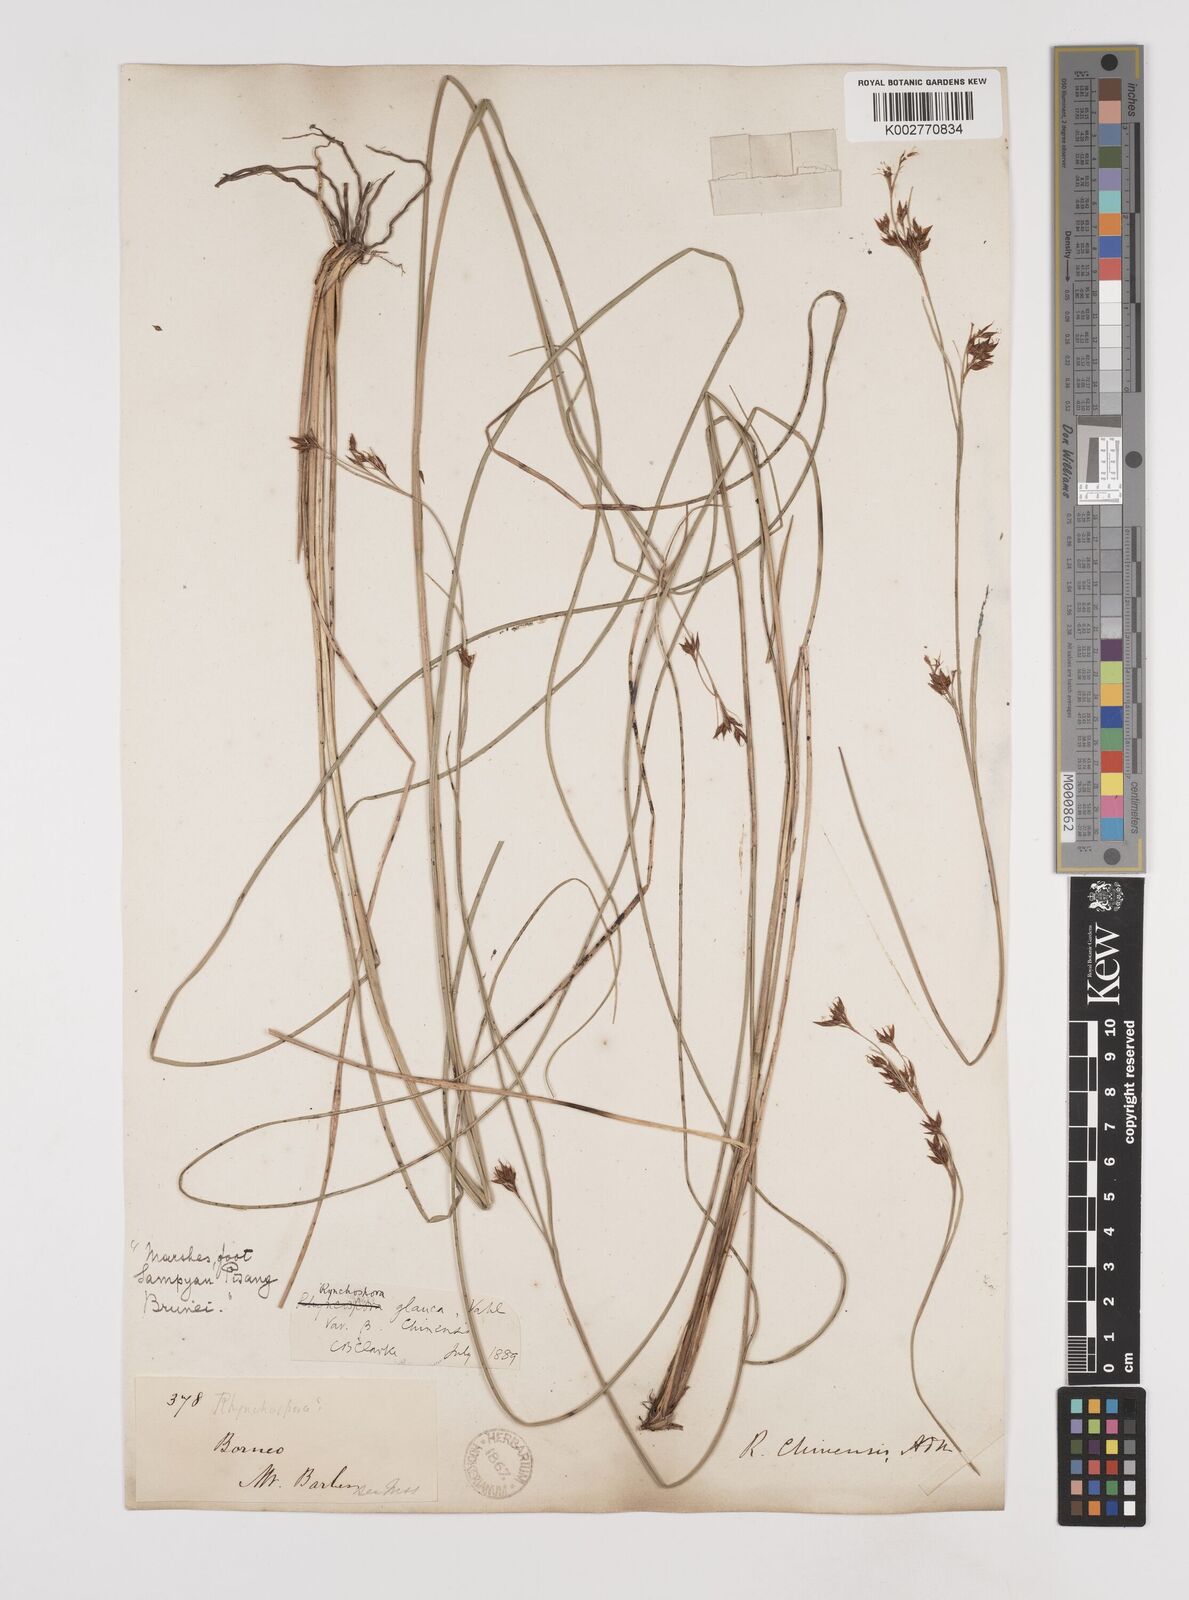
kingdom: Plantae
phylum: Tracheophyta
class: Liliopsida
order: Poales
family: Cyperaceae
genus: Rhynchospora
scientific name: Rhynchospora rugosa
